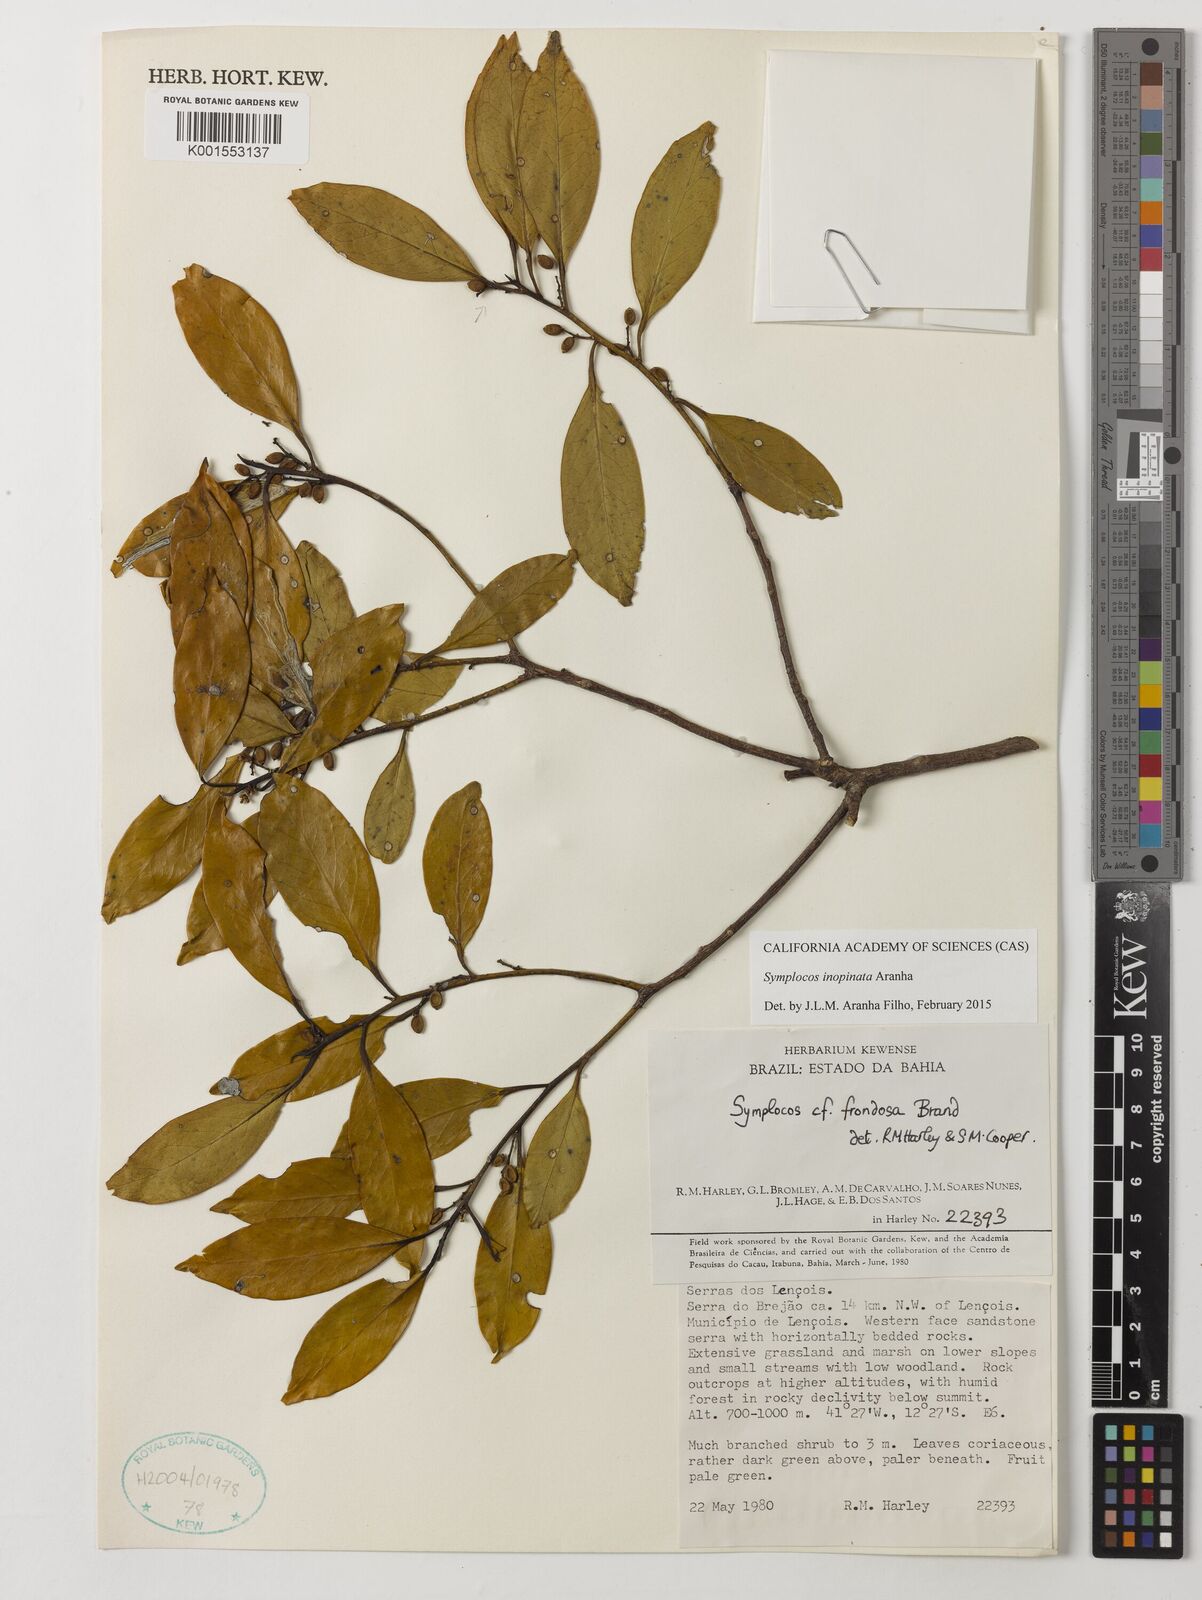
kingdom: Plantae
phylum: Tracheophyta
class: Magnoliopsida
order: Ericales
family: Symplocaceae
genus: Symplocos
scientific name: Symplocos inopinata
